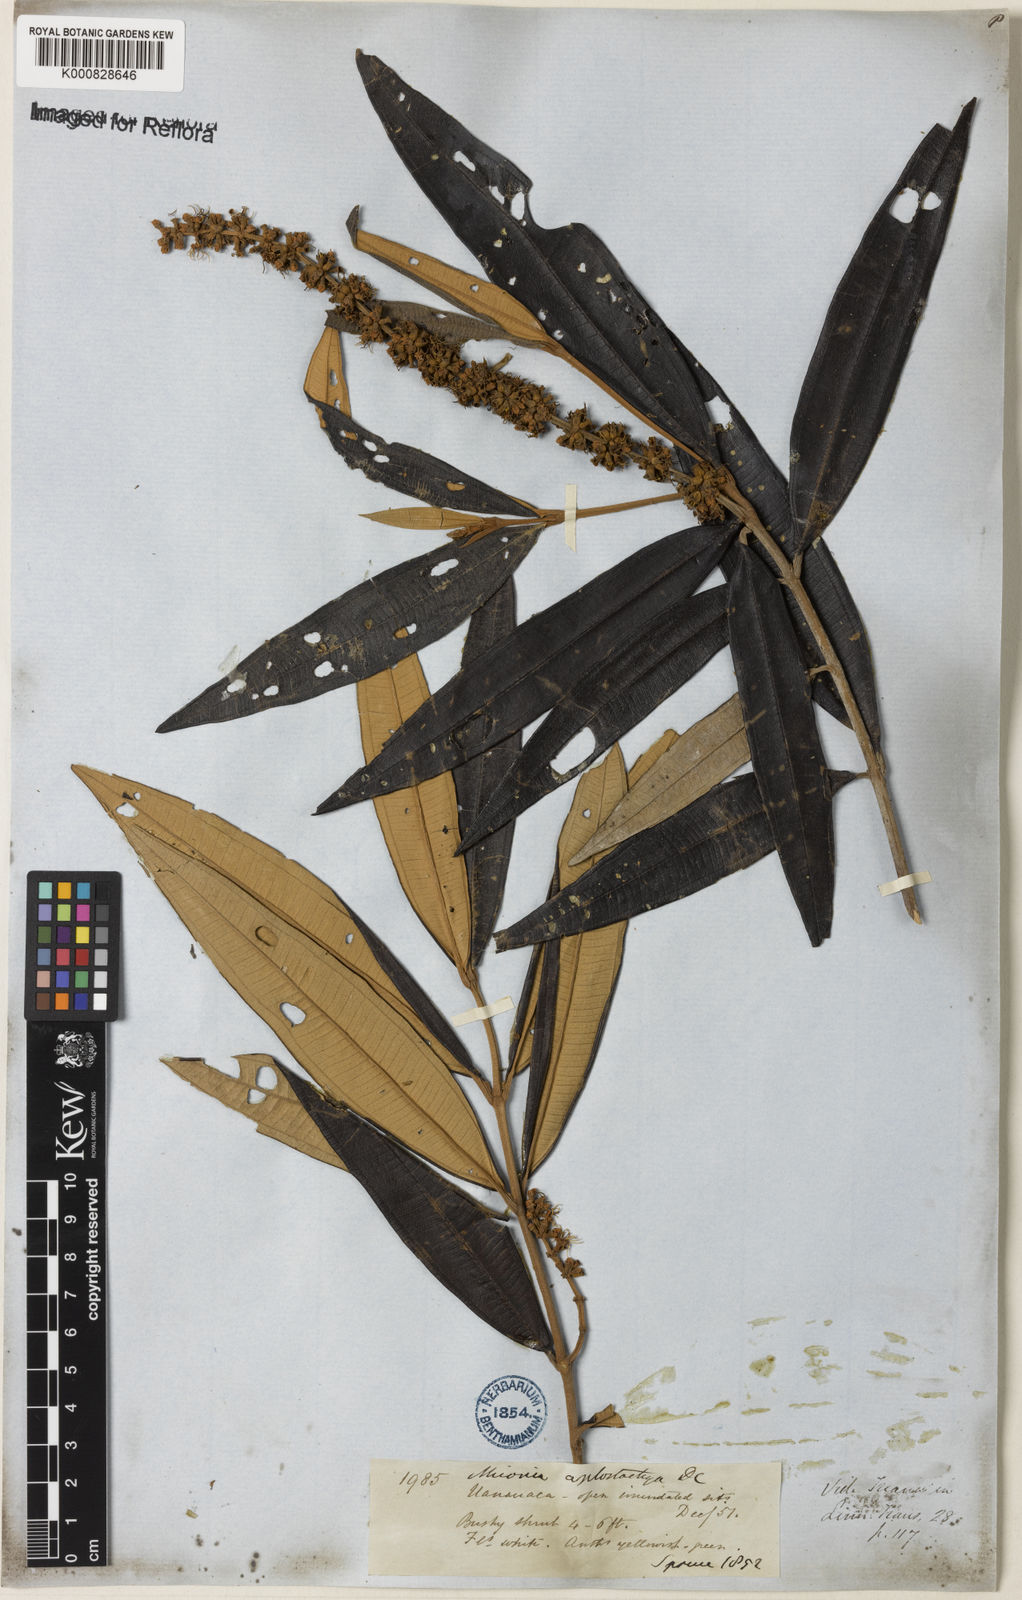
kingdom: Plantae
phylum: Tracheophyta
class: Magnoliopsida
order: Myrtales
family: Melastomataceae
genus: Miconia
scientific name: Miconia aplostachya
